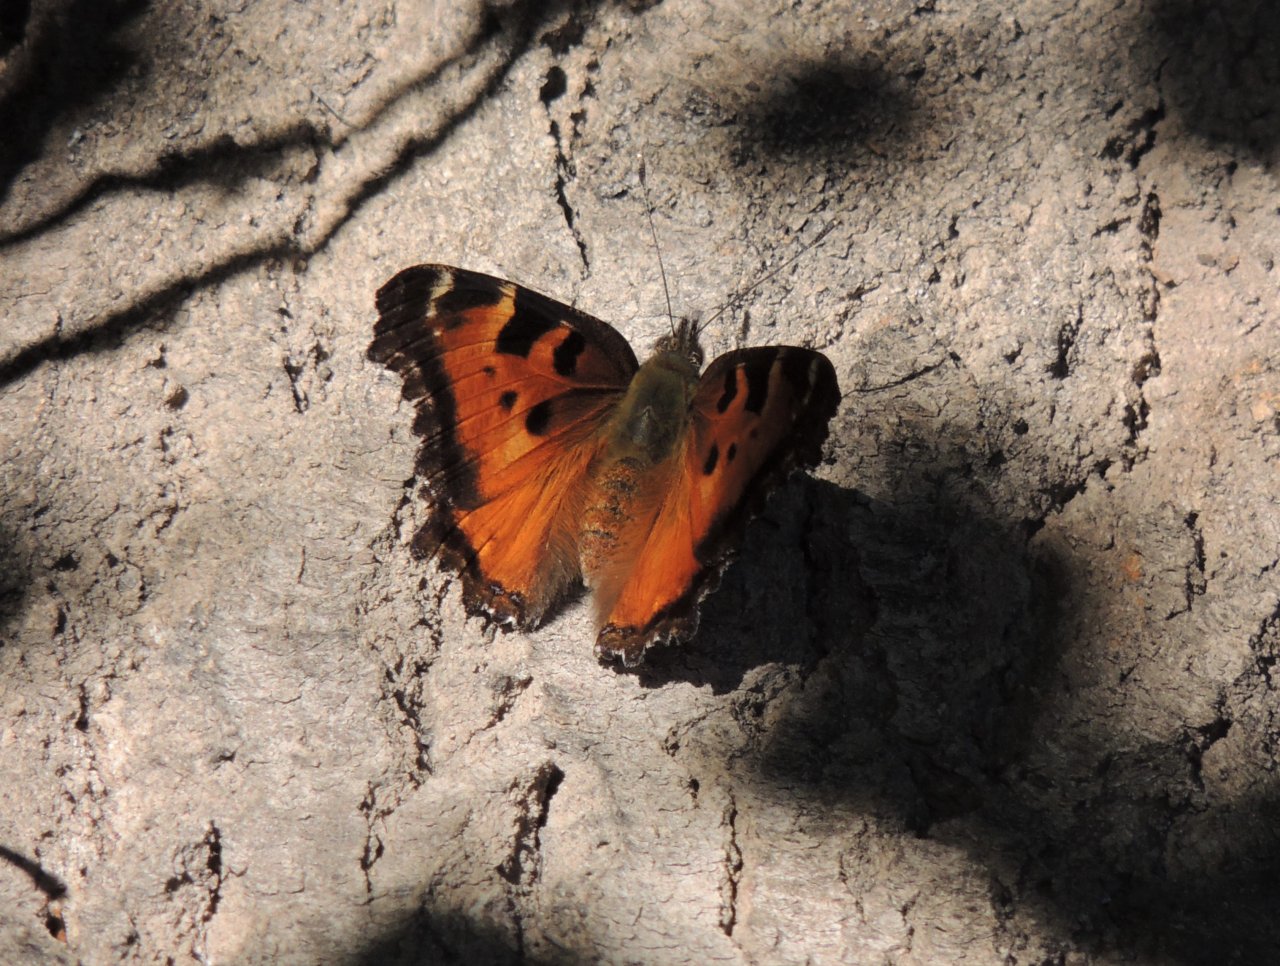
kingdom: Animalia
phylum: Arthropoda
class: Insecta
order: Lepidoptera
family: Nymphalidae
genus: Nymphalis
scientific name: Nymphalis californica
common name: California Tortoiseshell
